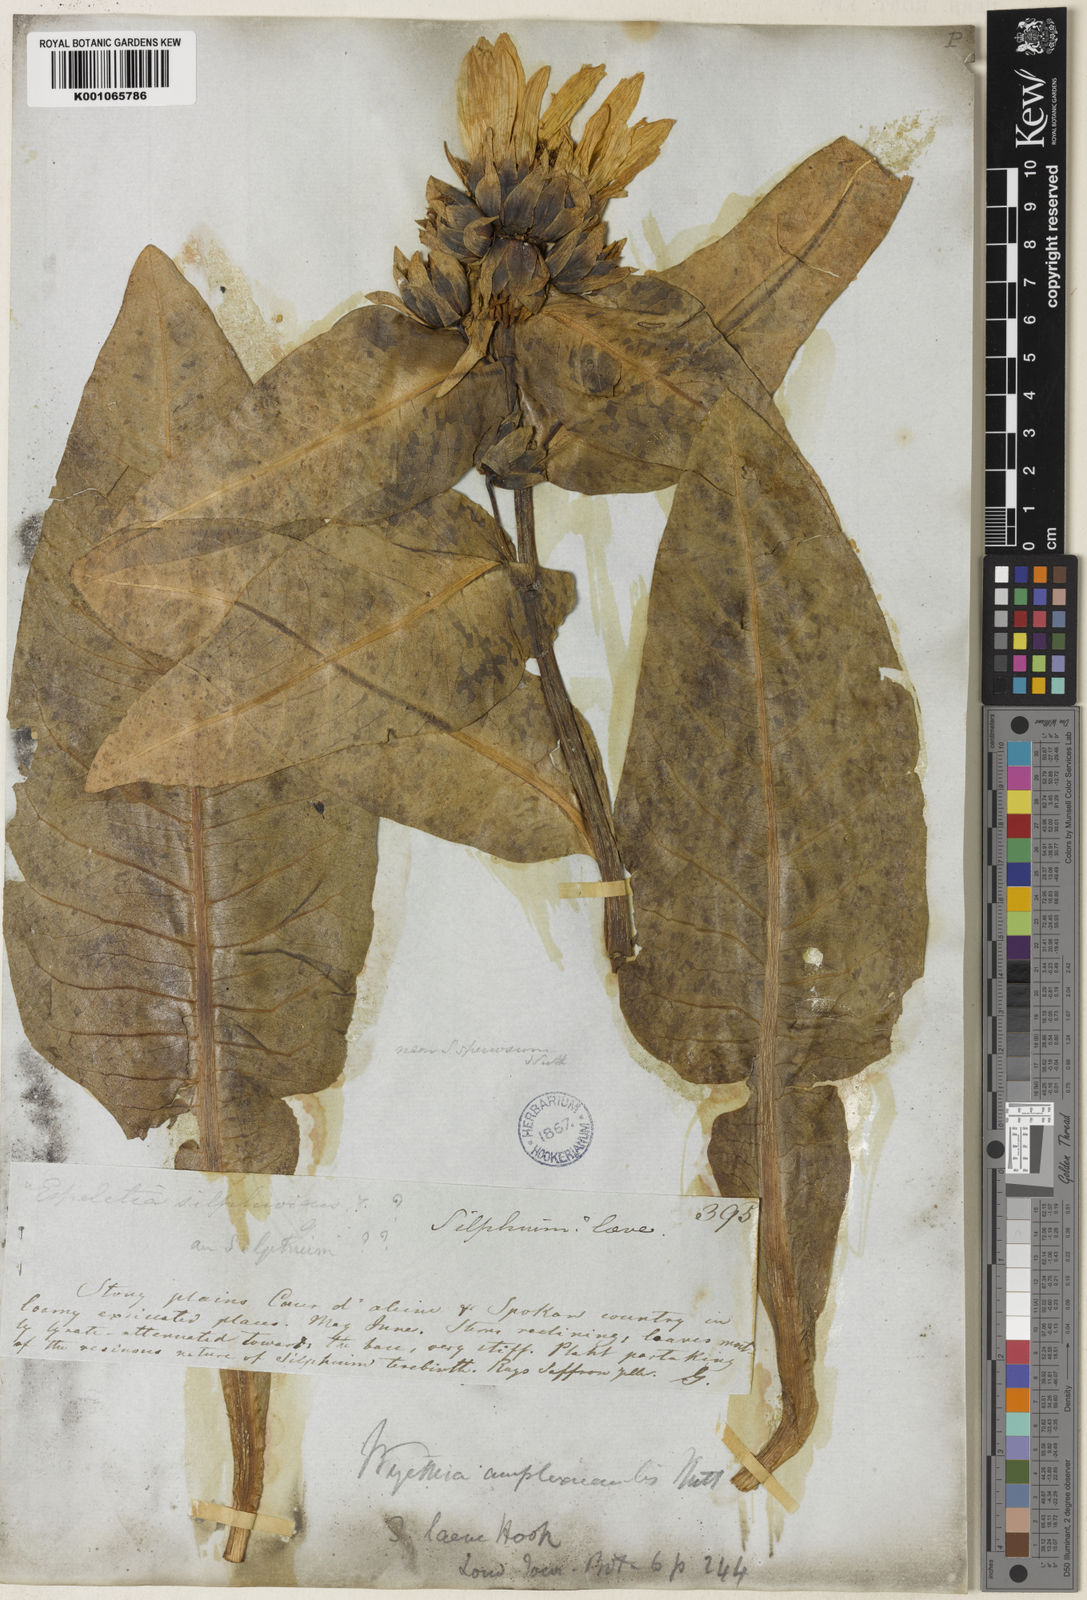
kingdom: Plantae
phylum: Tracheophyta
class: Magnoliopsida
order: Asterales
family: Asteraceae
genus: Wyethia
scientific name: Wyethia amplexicaulis
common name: Northern mule's-ears
